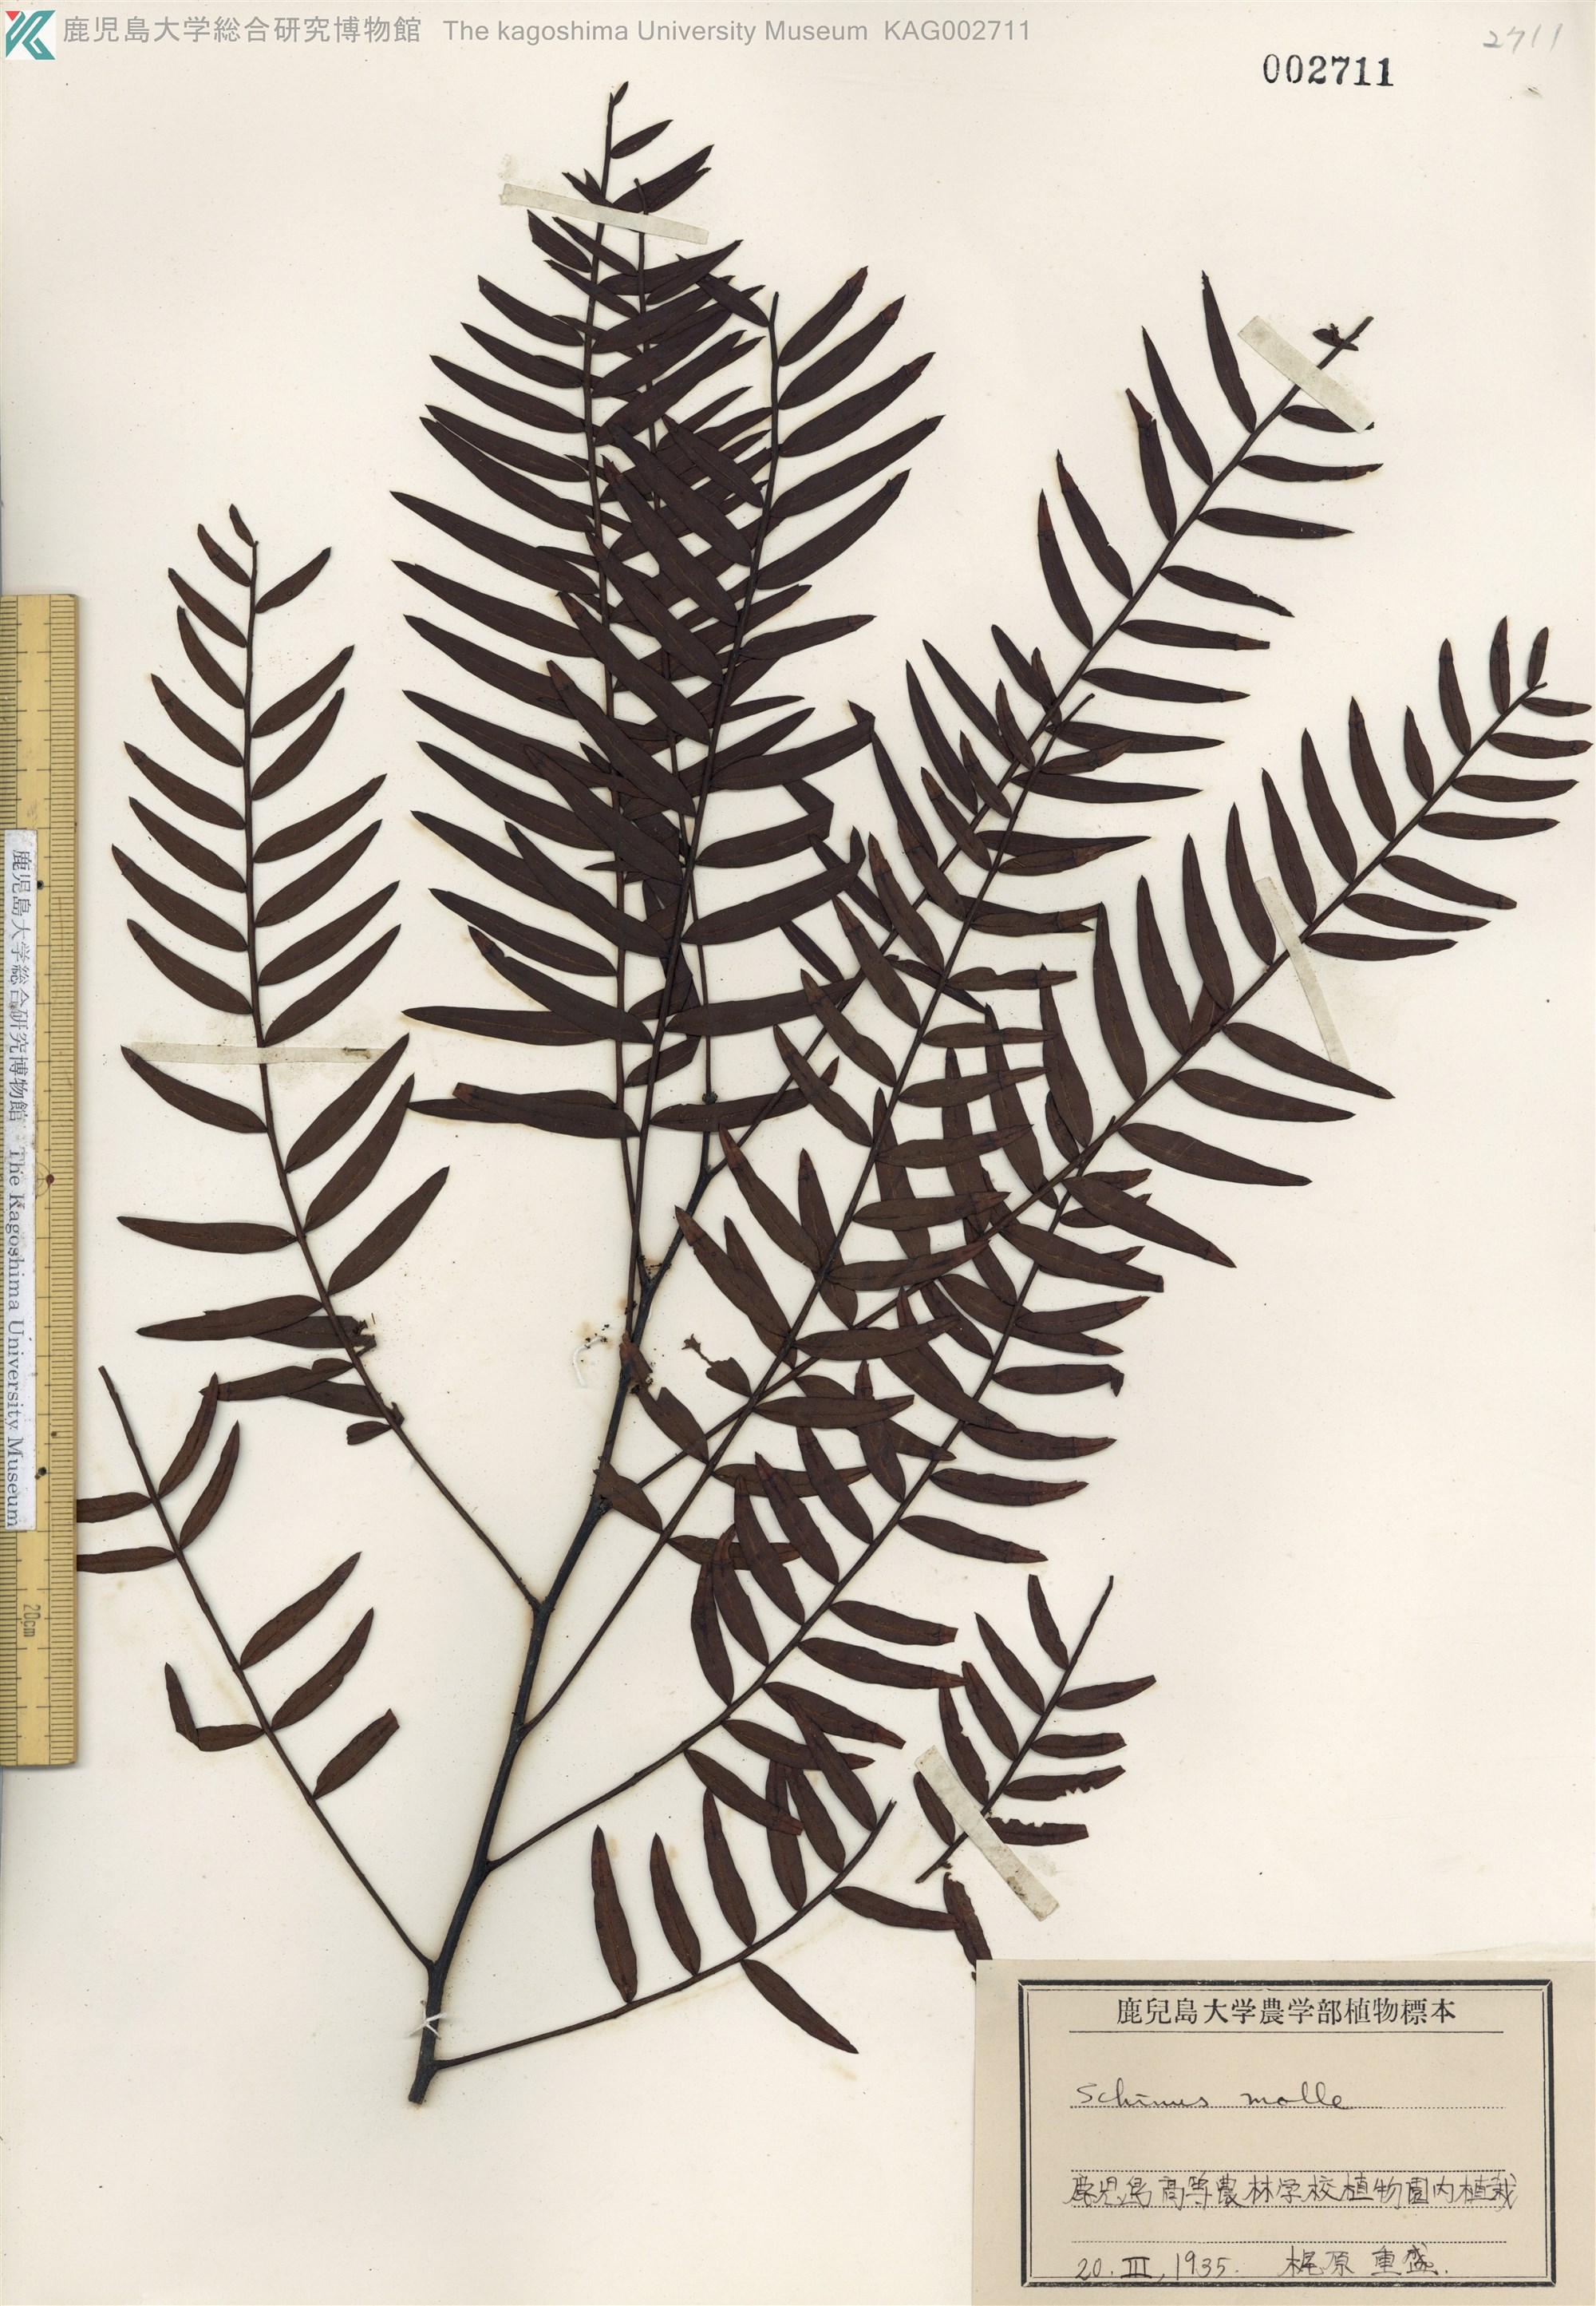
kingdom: Plantae
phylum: Tracheophyta
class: Magnoliopsida
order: Sapindales
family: Anacardiaceae
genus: Schinus
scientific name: Schinus molle
